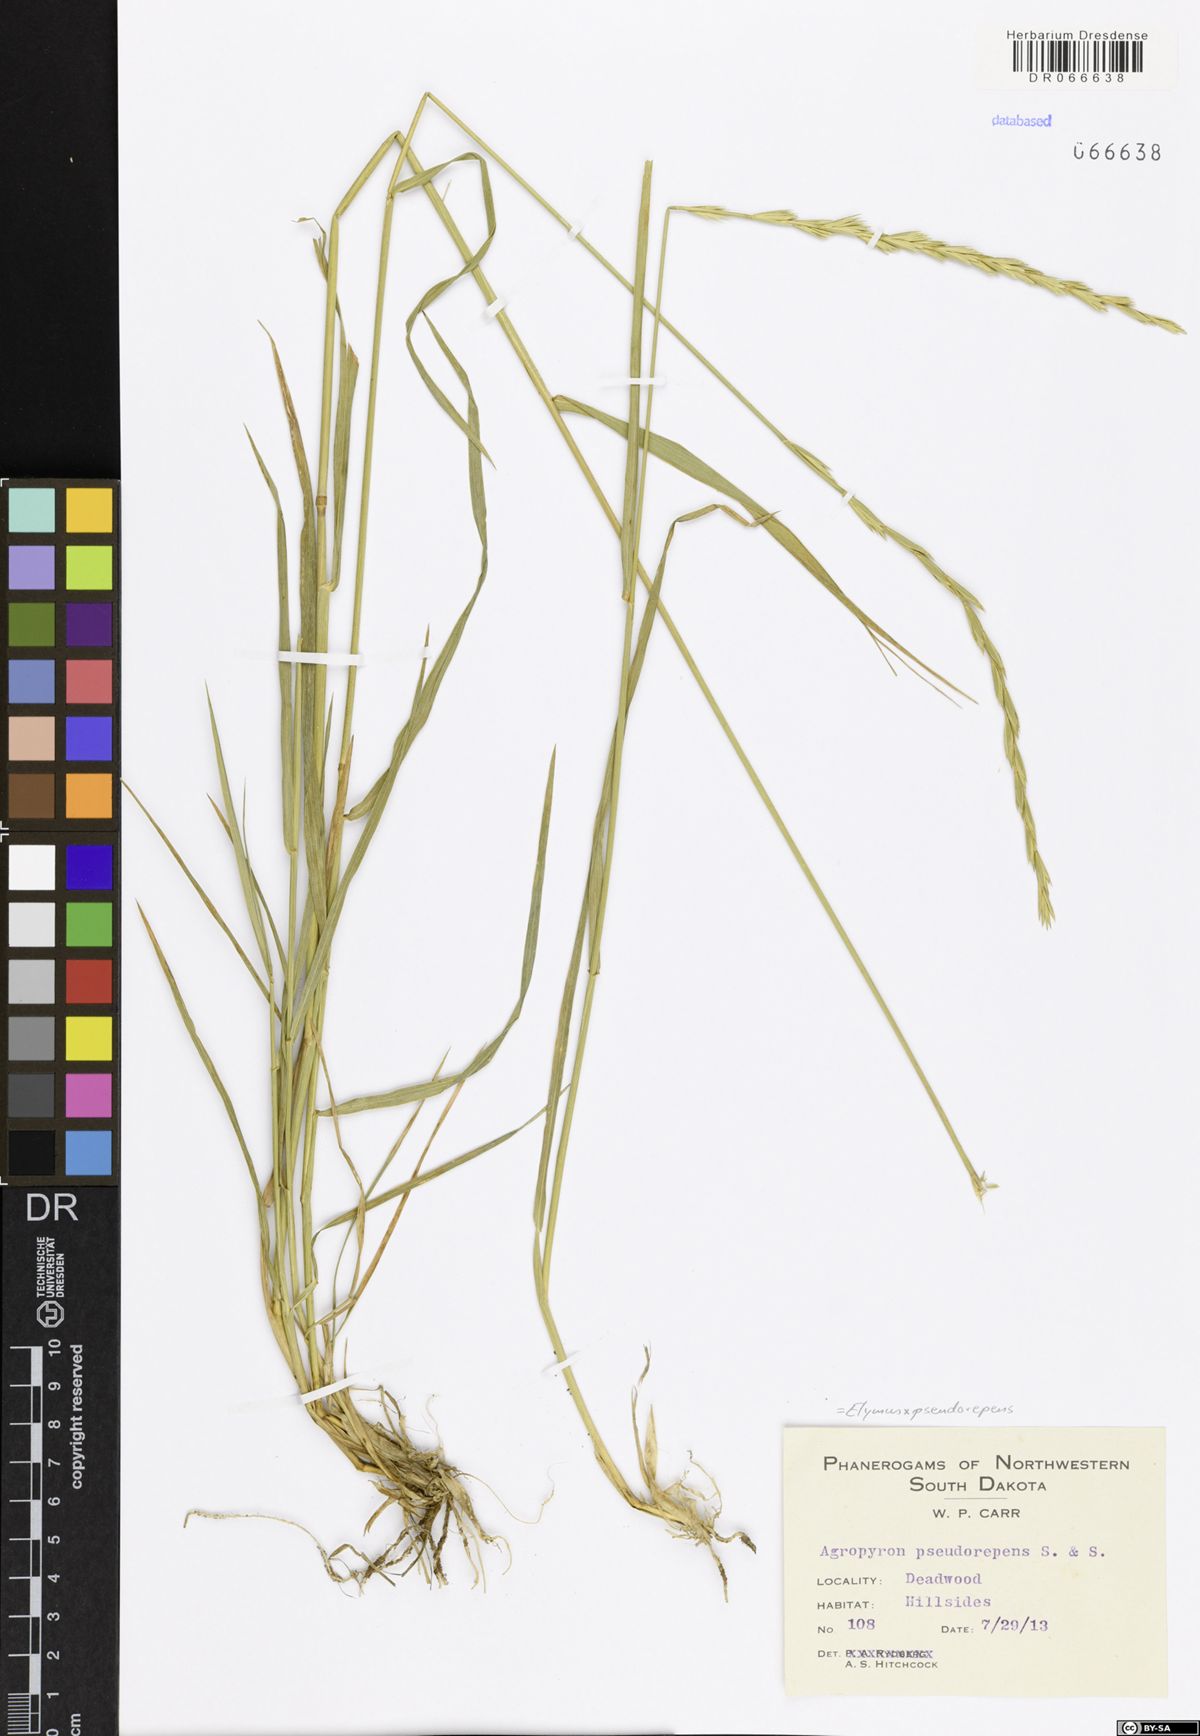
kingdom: Plantae
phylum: Tracheophyta
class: Liliopsida
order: Poales
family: Poaceae
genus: Elymus
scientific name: Elymus pseudorepens
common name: False quack grass
